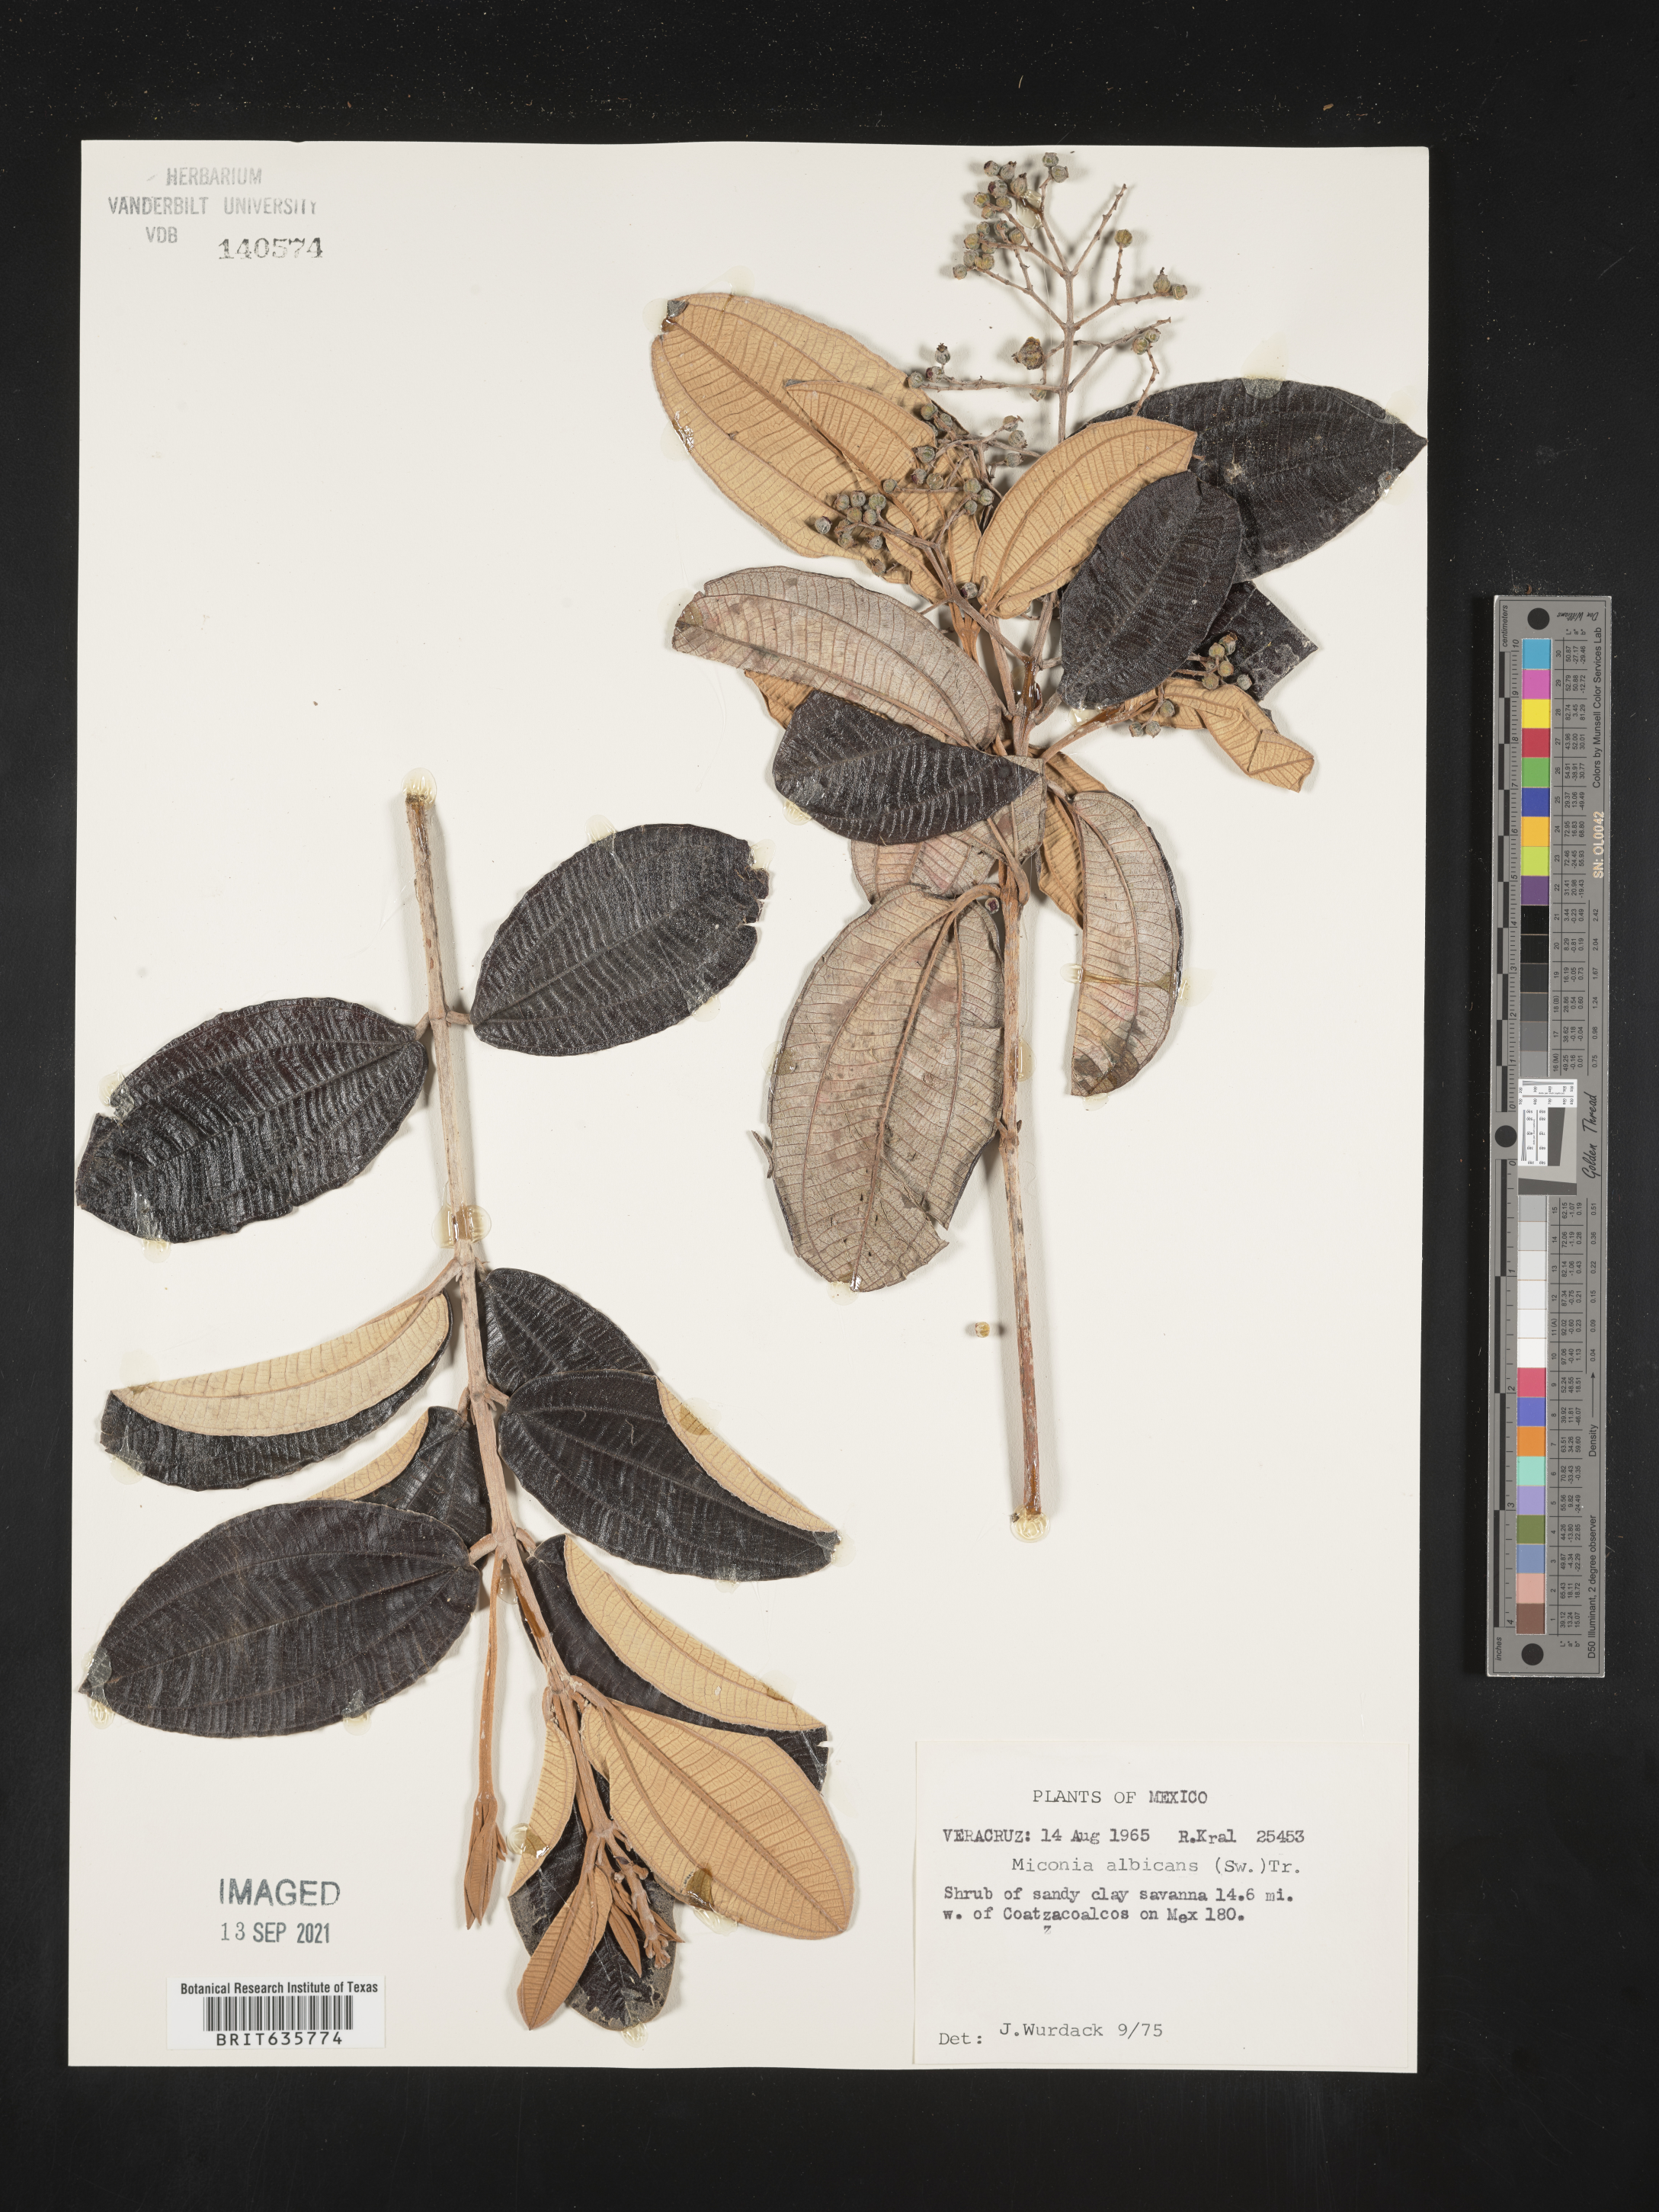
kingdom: Plantae
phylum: Tracheophyta
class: Magnoliopsida
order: Myrtales
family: Melastomataceae
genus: Miconia
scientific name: Miconia
